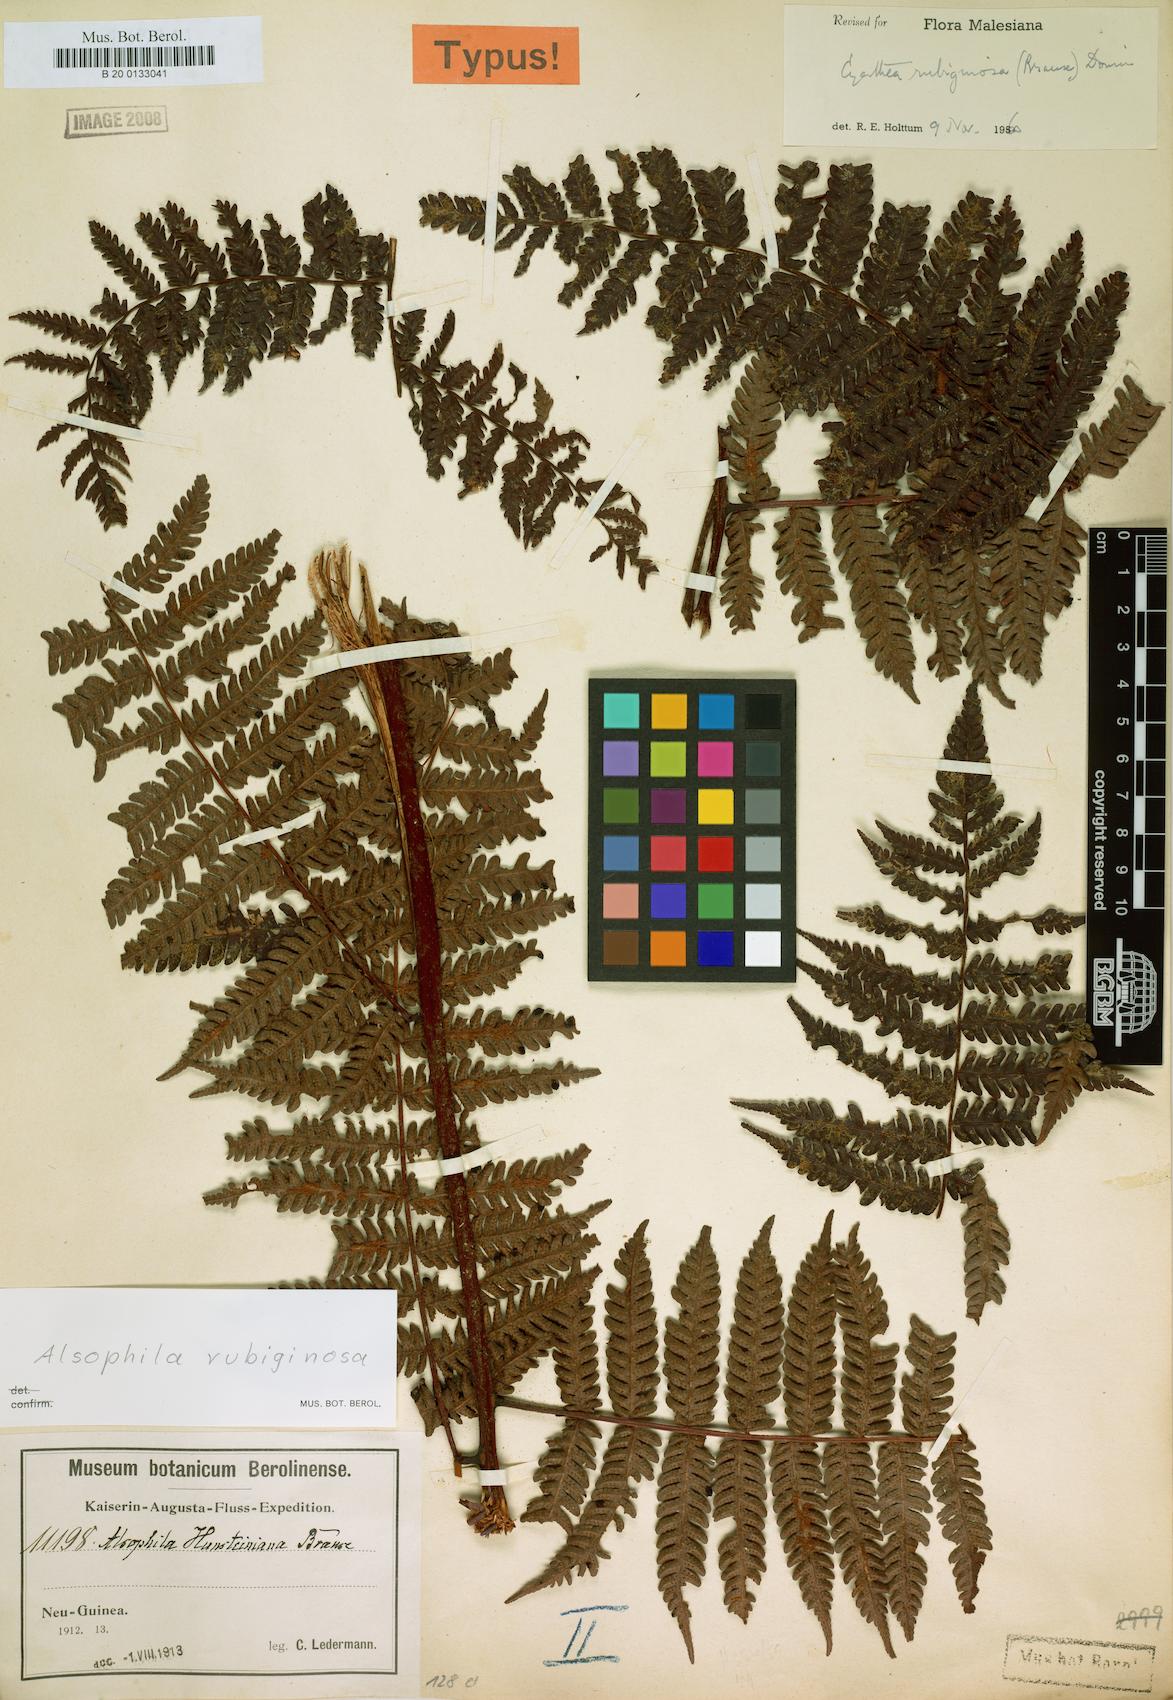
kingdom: Plantae
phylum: Tracheophyta
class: Polypodiopsida
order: Cyatheales
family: Cyatheaceae
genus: Alsophila
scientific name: Alsophila rubiginosa
